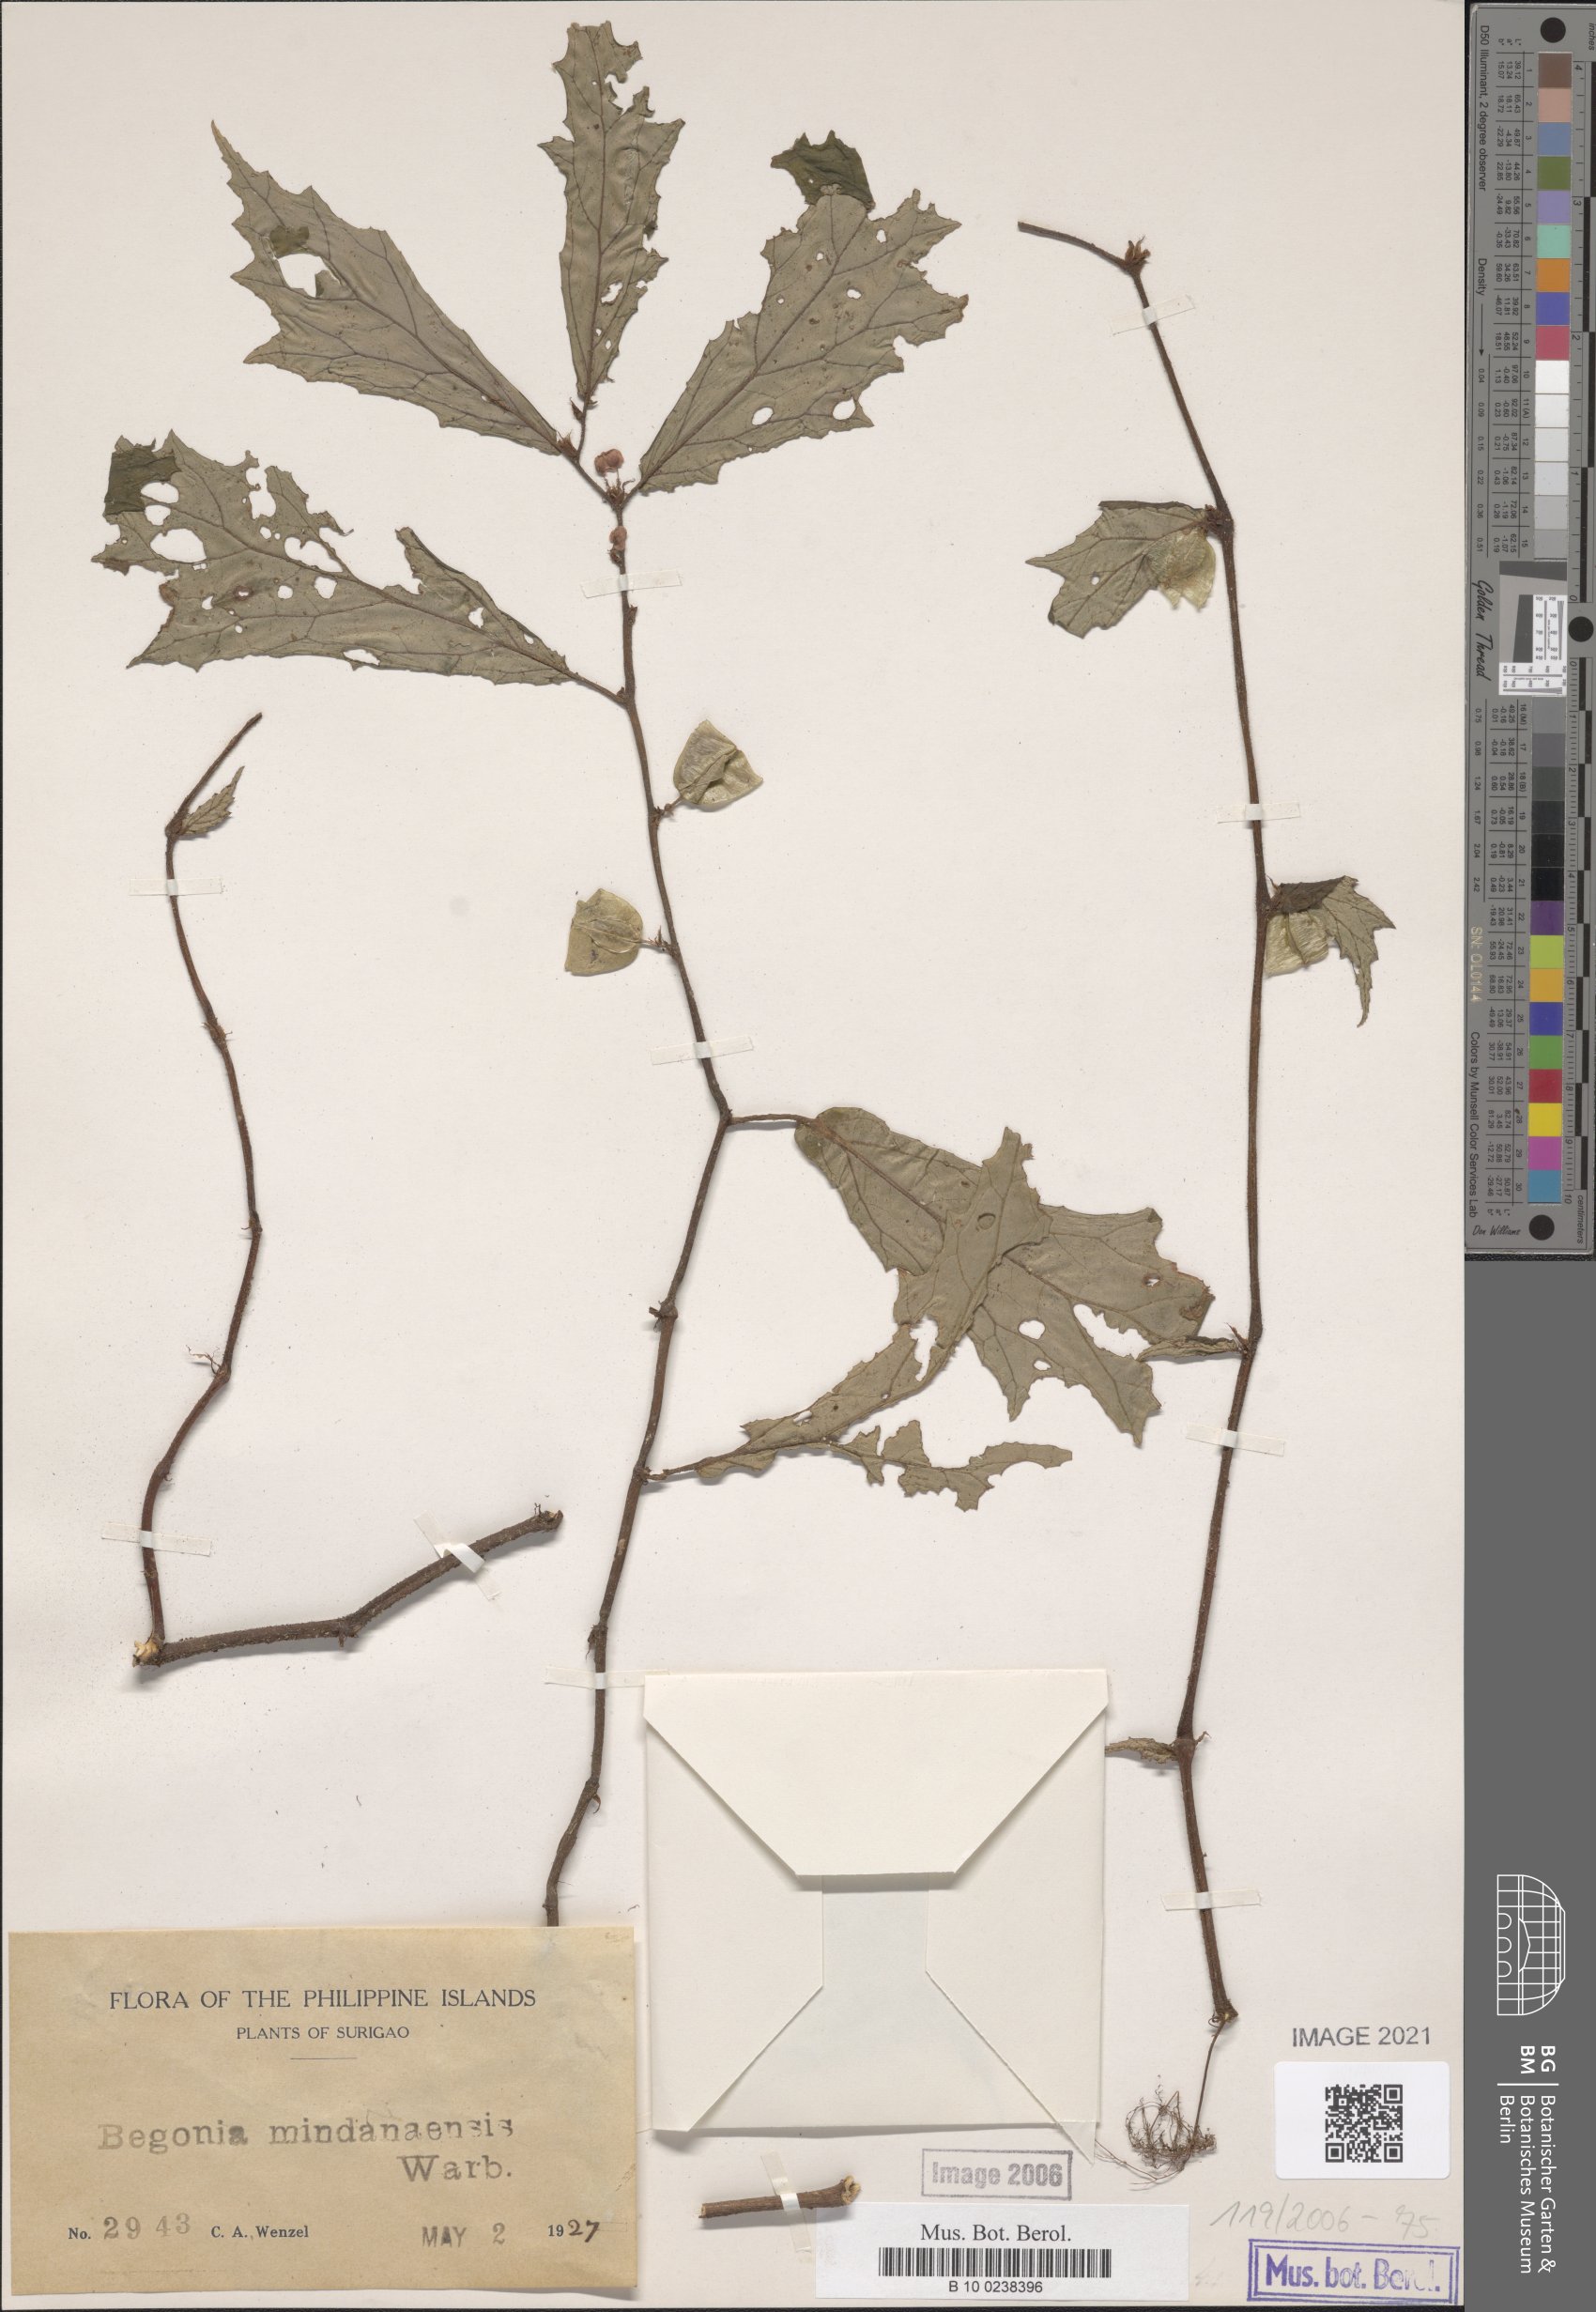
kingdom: Plantae
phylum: Tracheophyta
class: Magnoliopsida
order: Cucurbitales
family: Begoniaceae
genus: Begonia
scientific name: Begonia mindanaensis
